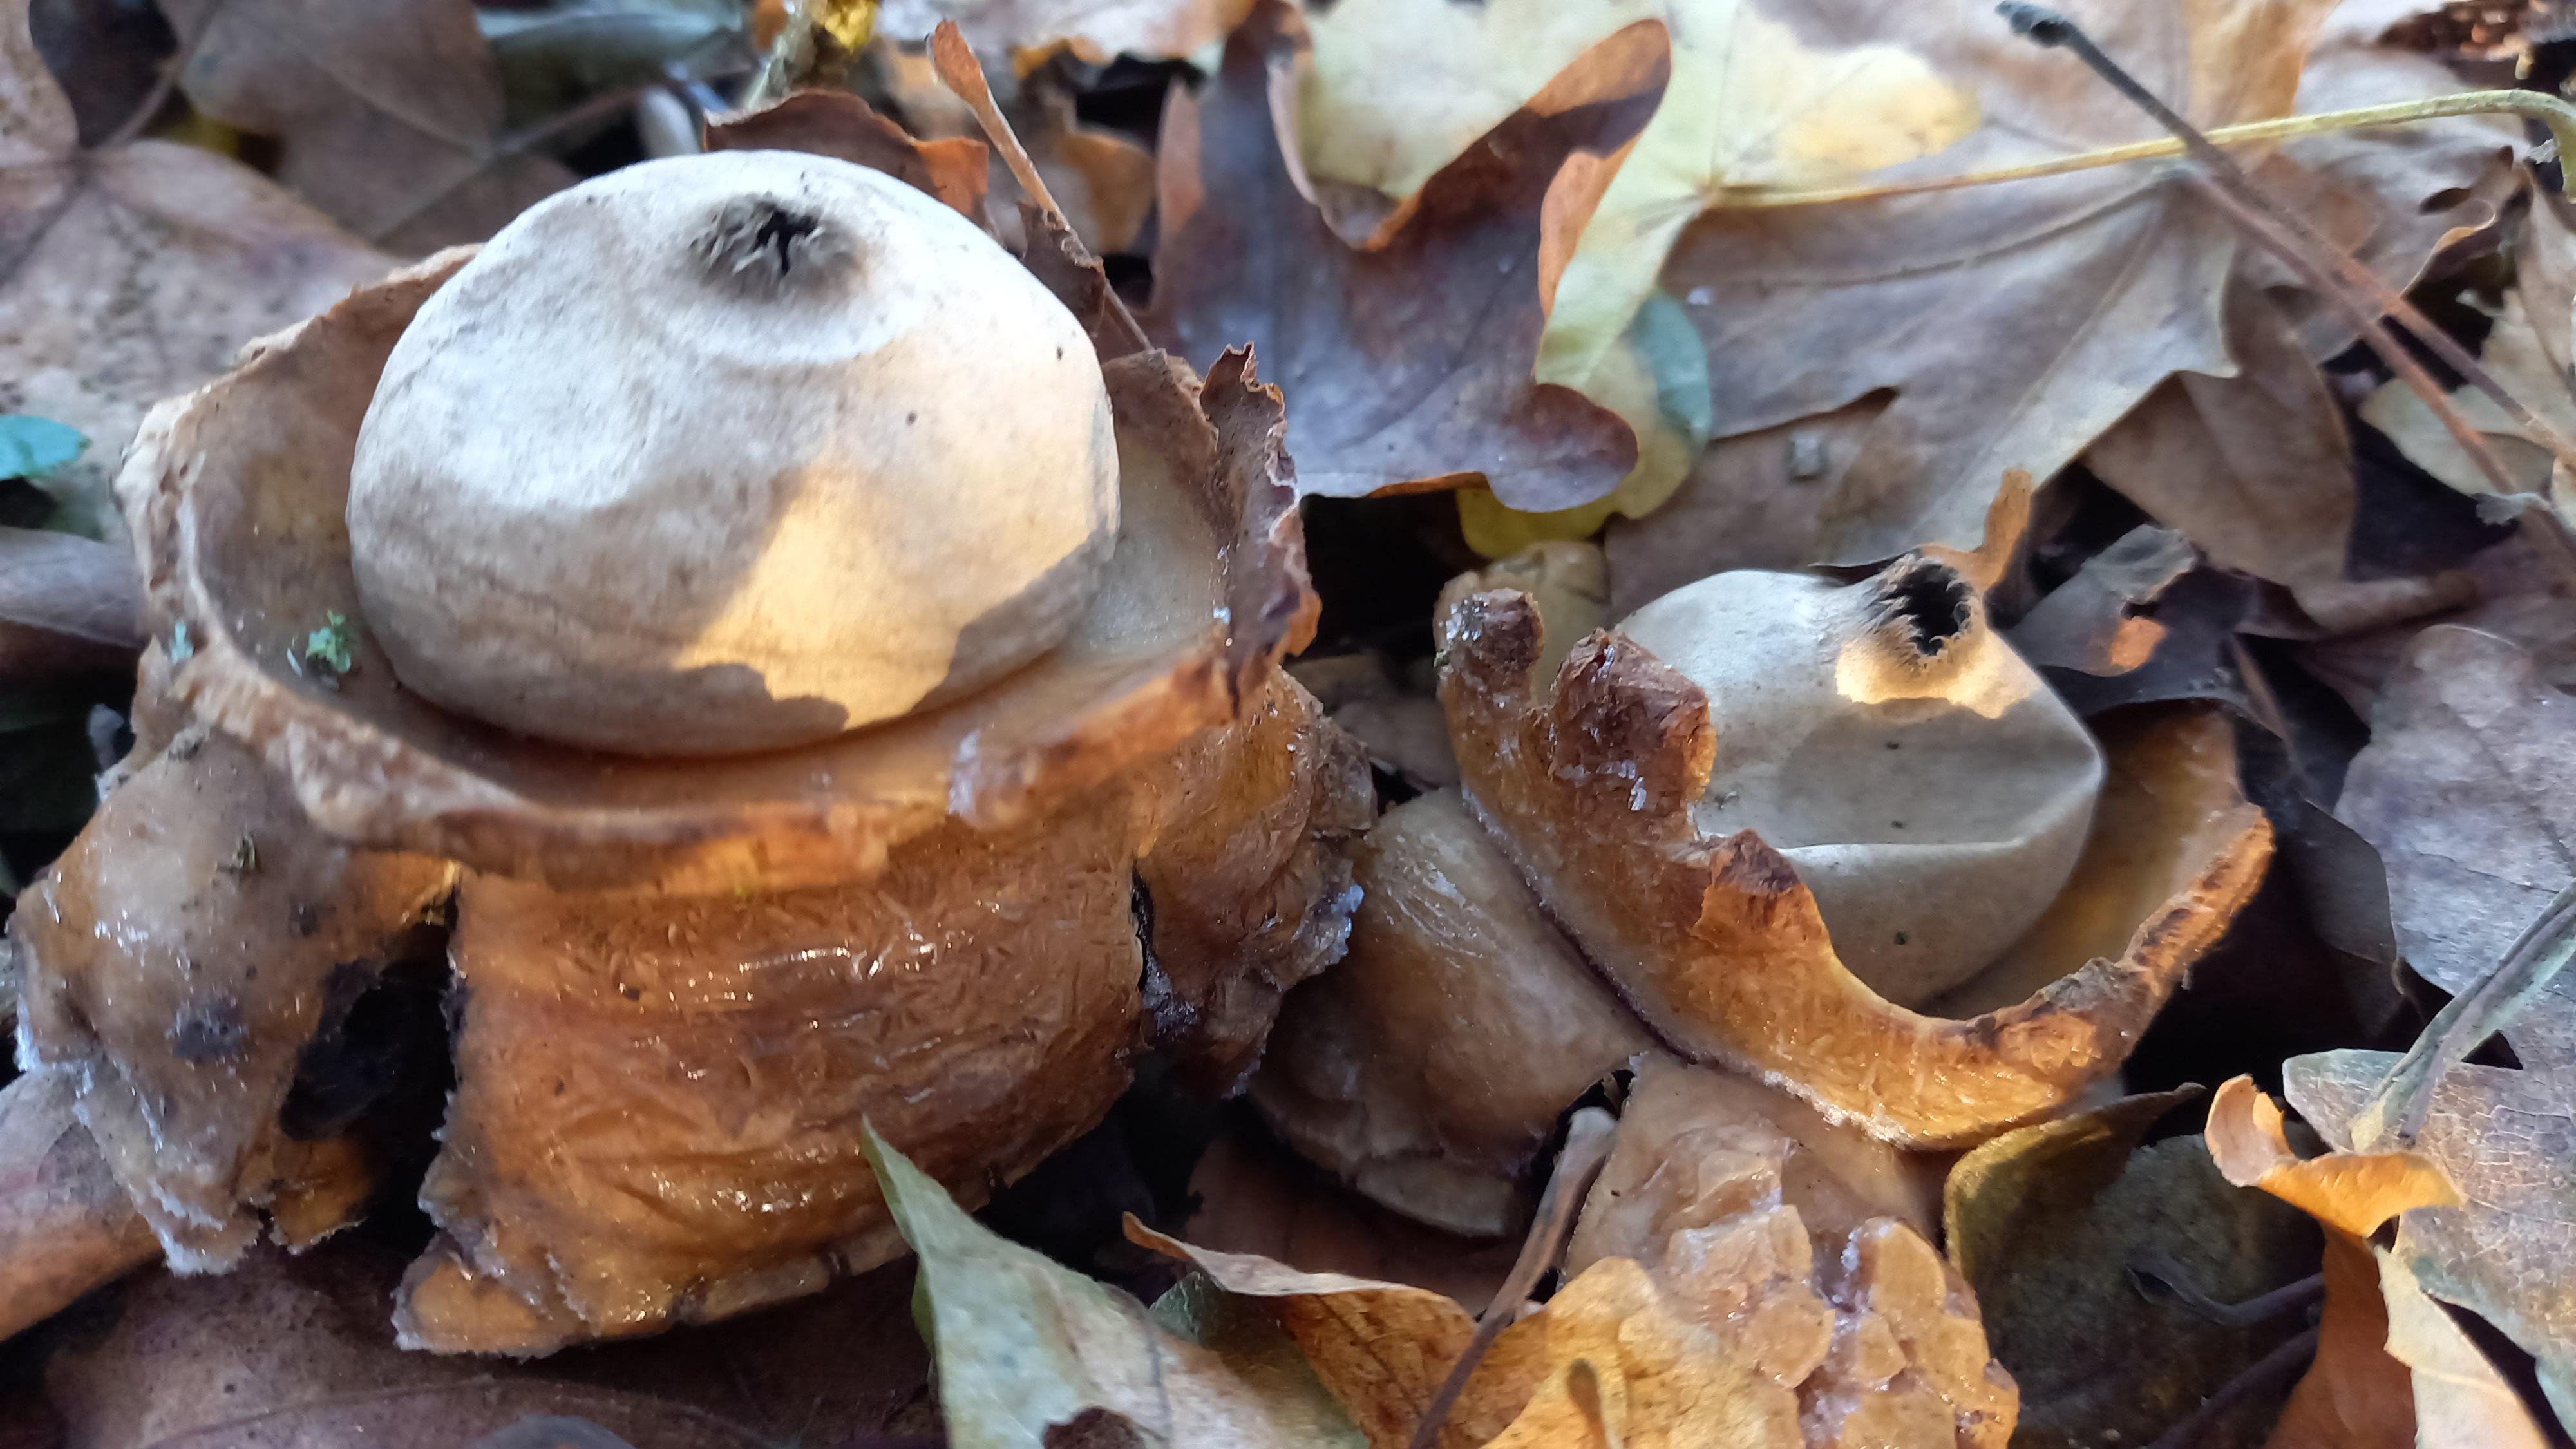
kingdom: Fungi
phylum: Basidiomycota
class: Agaricomycetes
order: Geastrales
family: Geastraceae
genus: Geastrum
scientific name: Geastrum michelianum
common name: kødet stjernebold
